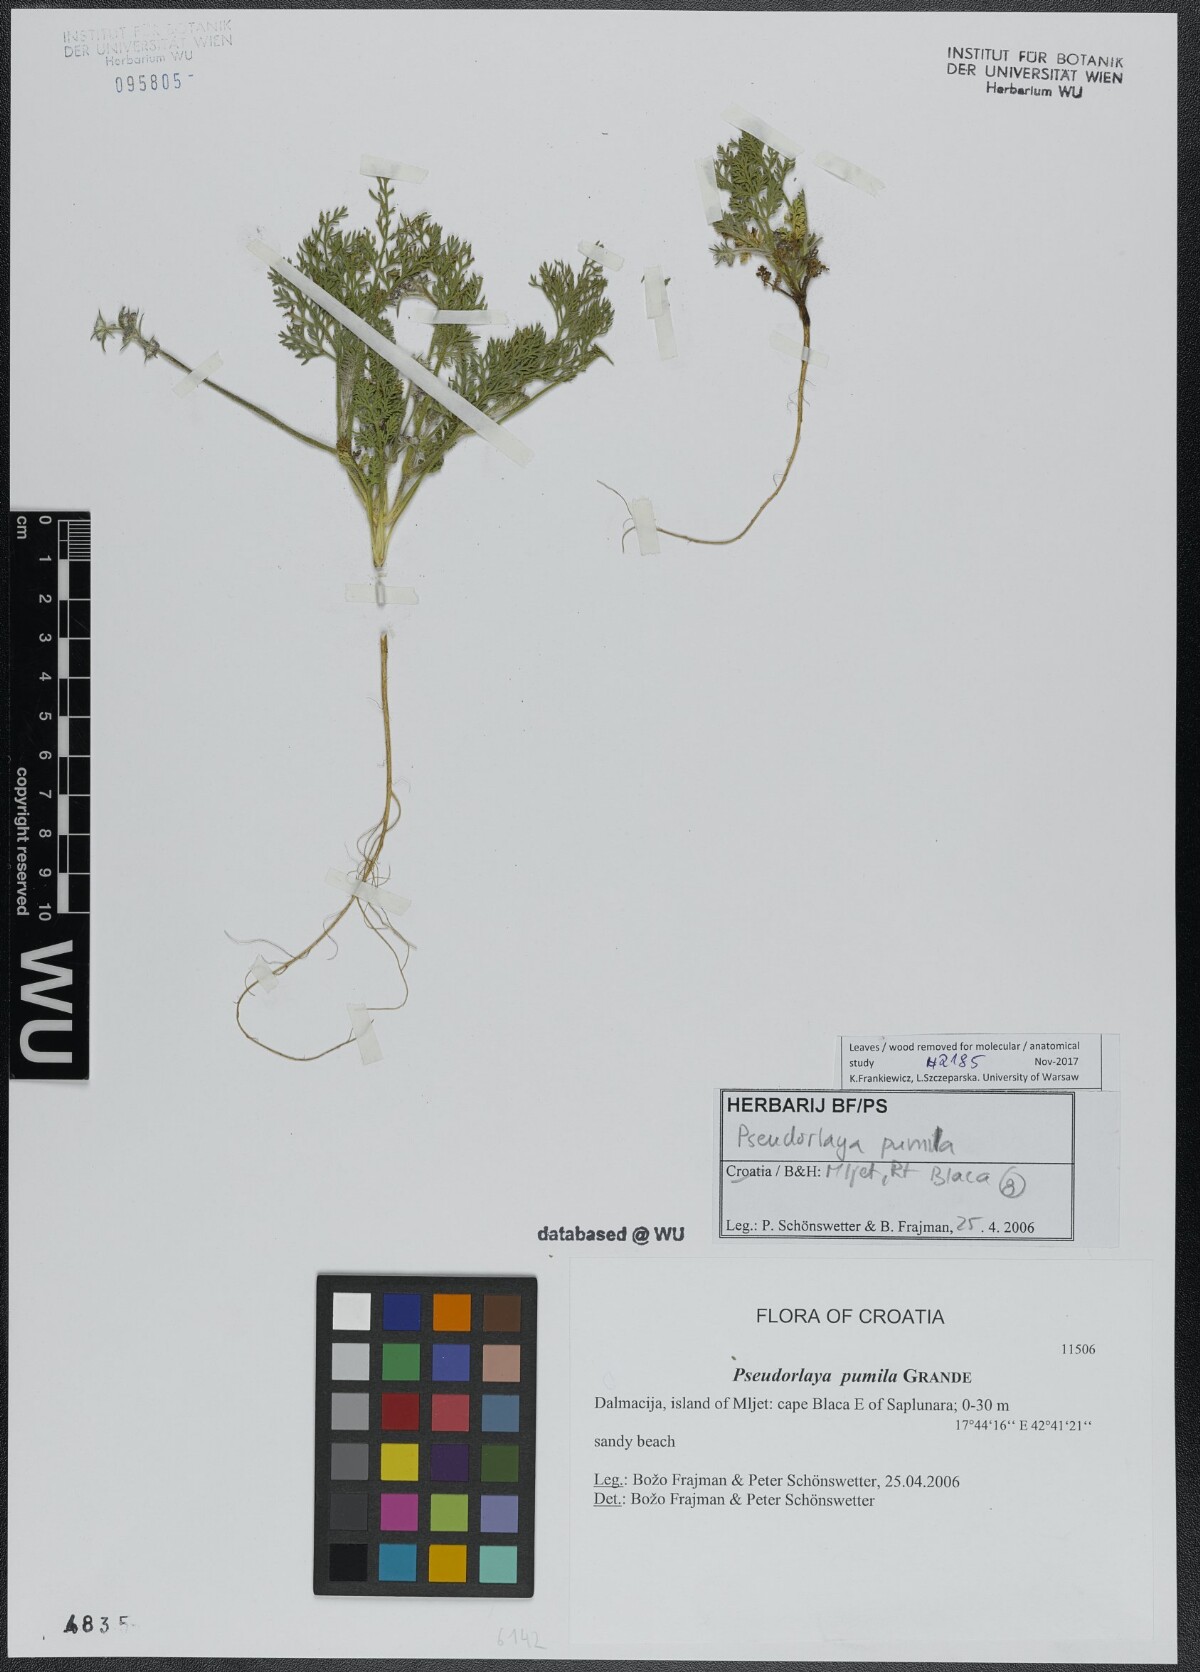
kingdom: Plantae
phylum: Tracheophyta
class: Magnoliopsida
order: Apiales
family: Apiaceae
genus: Daucus
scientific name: Daucus pumilus
